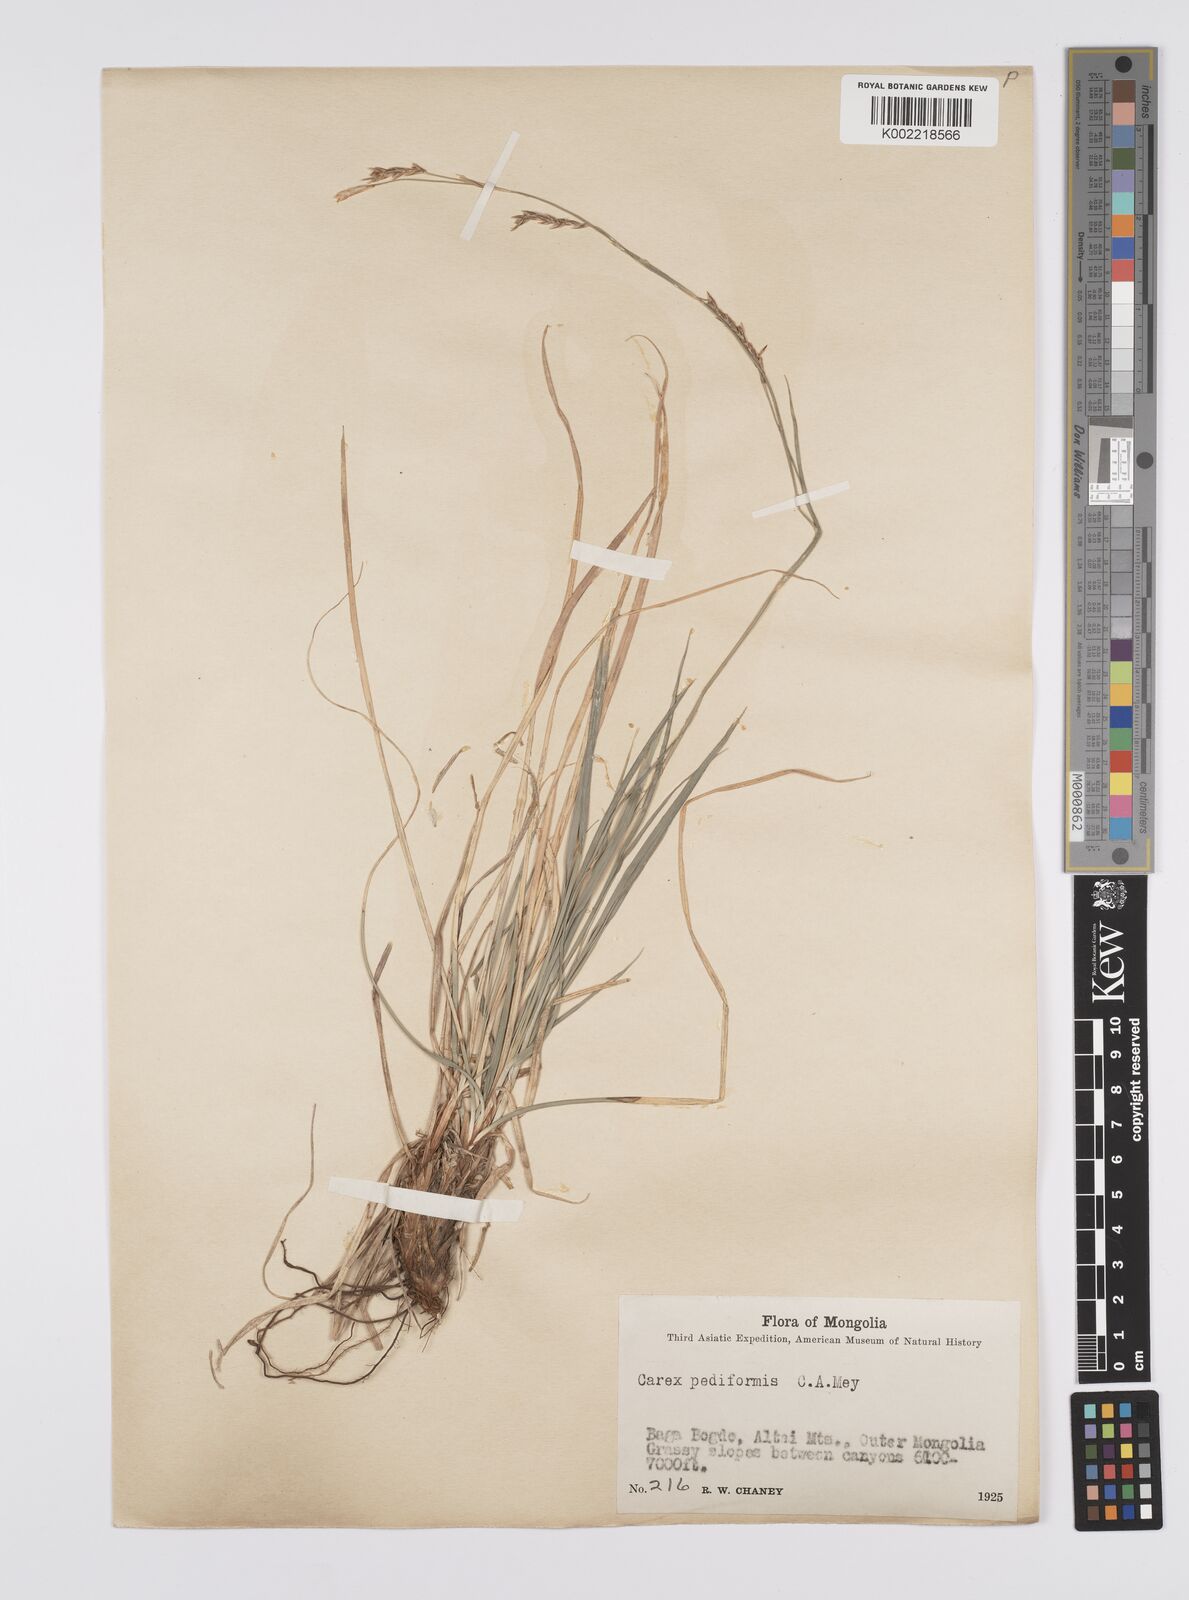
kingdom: Plantae
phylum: Tracheophyta
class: Liliopsida
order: Poales
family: Cyperaceae
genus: Carex
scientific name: Carex pediformis
